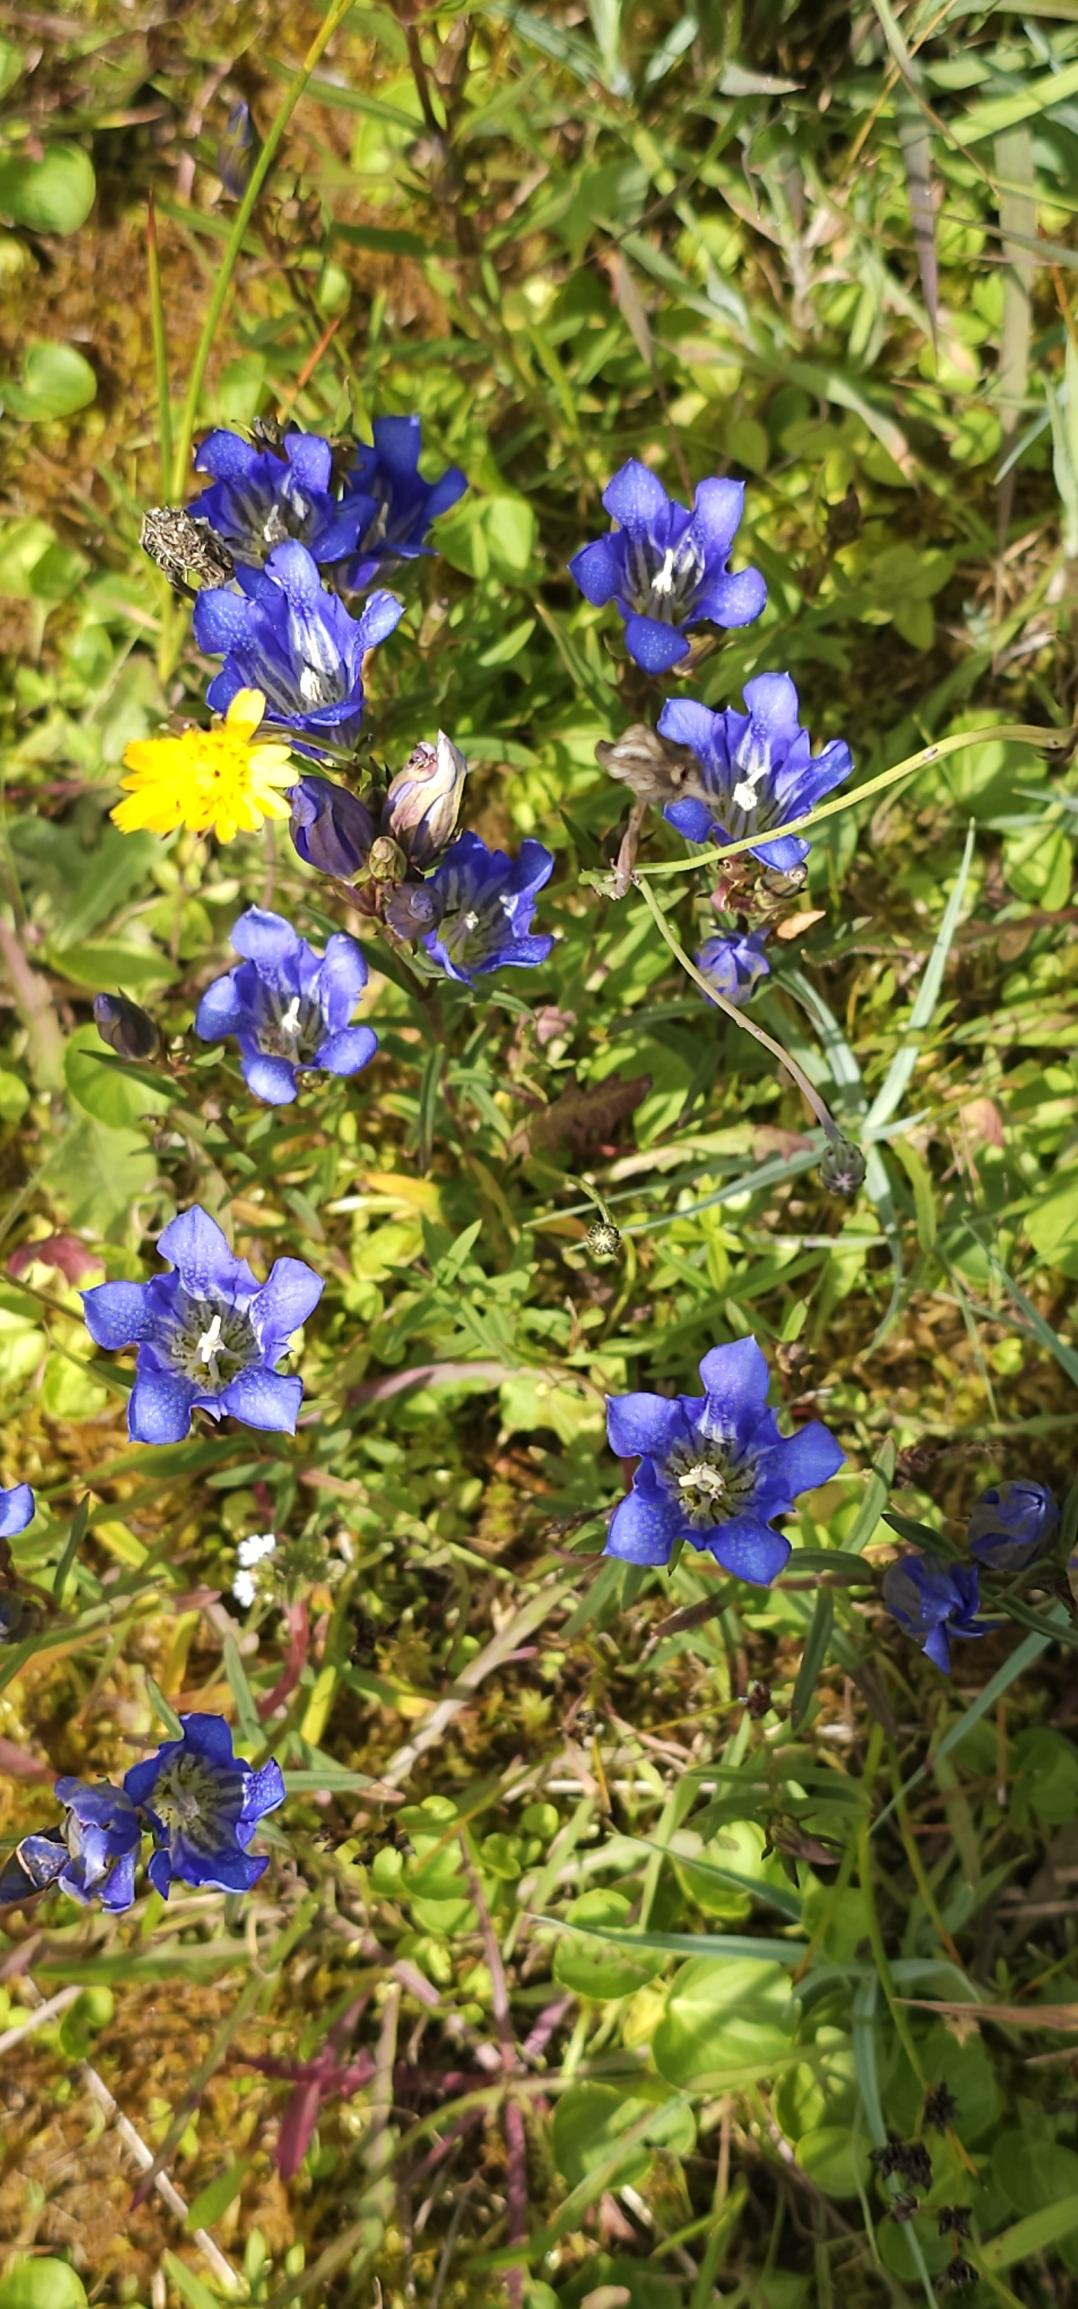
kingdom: Plantae
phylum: Tracheophyta
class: Magnoliopsida
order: Gentianales
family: Gentianaceae
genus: Gentiana
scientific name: Gentiana pneumonanthe
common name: Klokke-ensian
